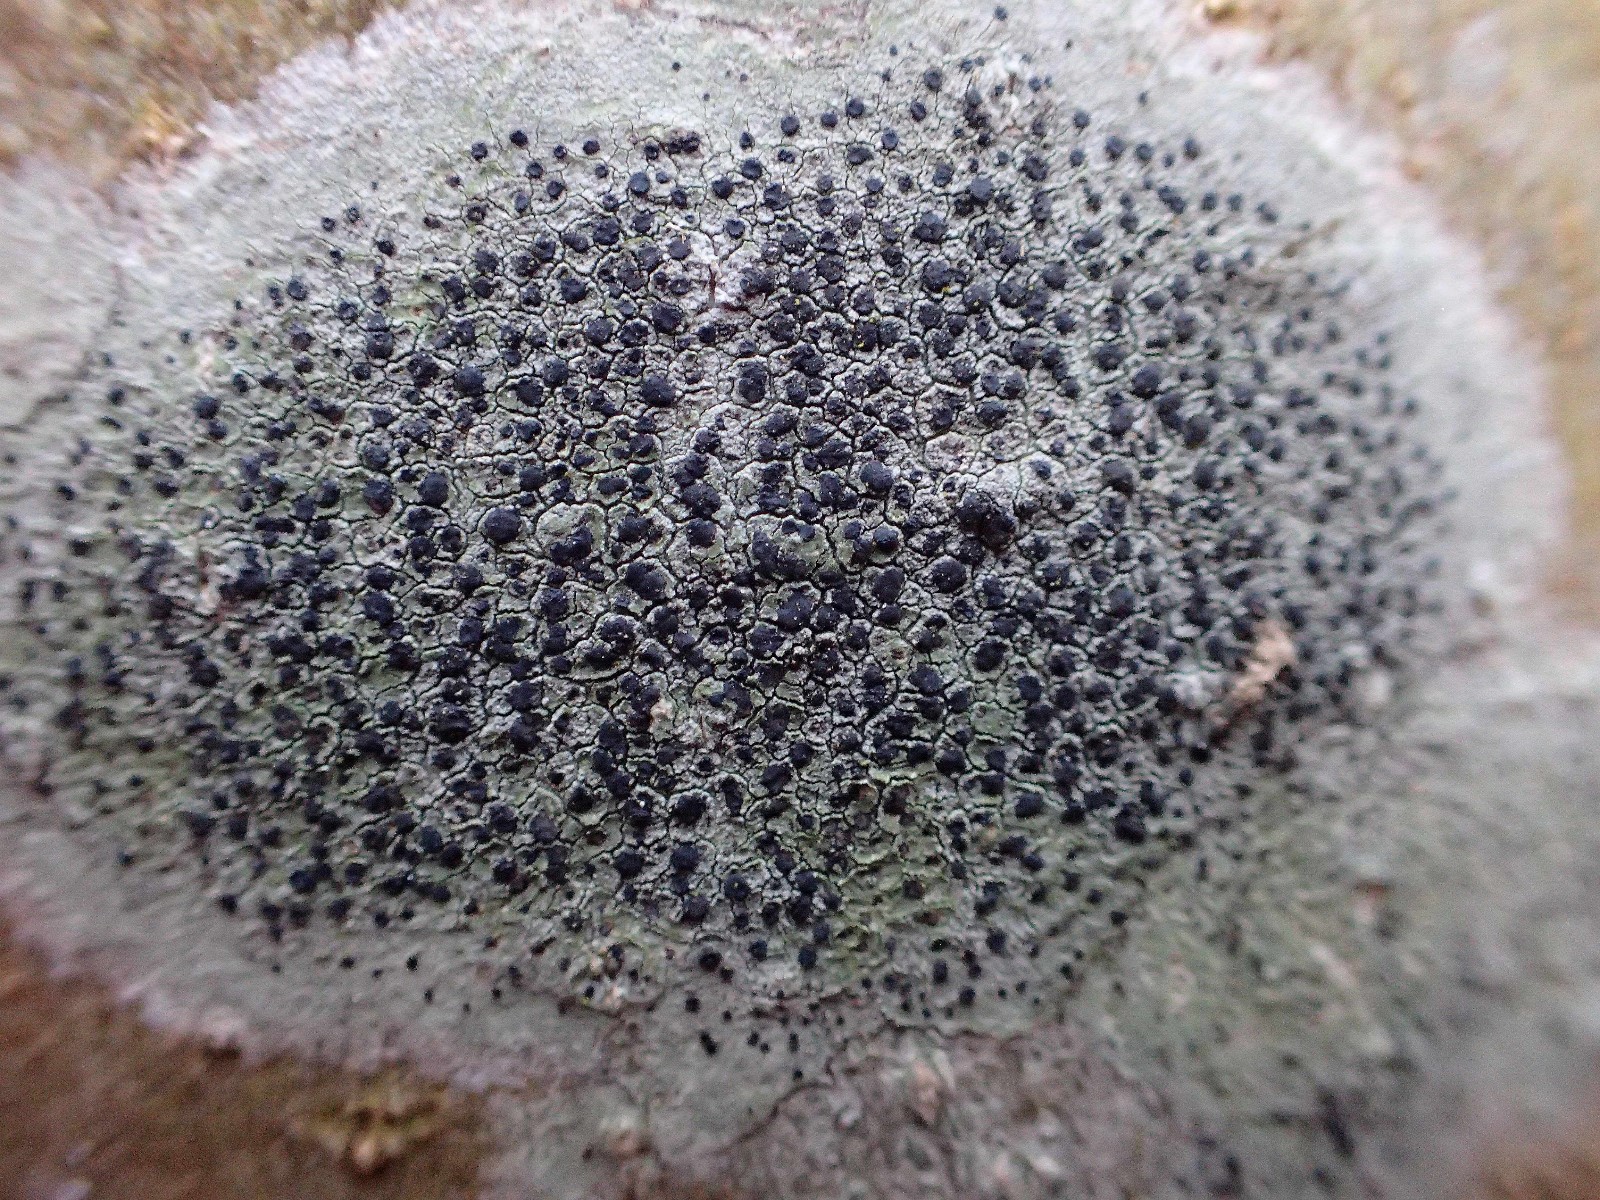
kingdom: Fungi
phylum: Ascomycota
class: Lecanoromycetes
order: Lecanorales
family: Lecanoraceae
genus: Lecidella
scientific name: Lecidella elaeochroma
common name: grågrøn skivelav
